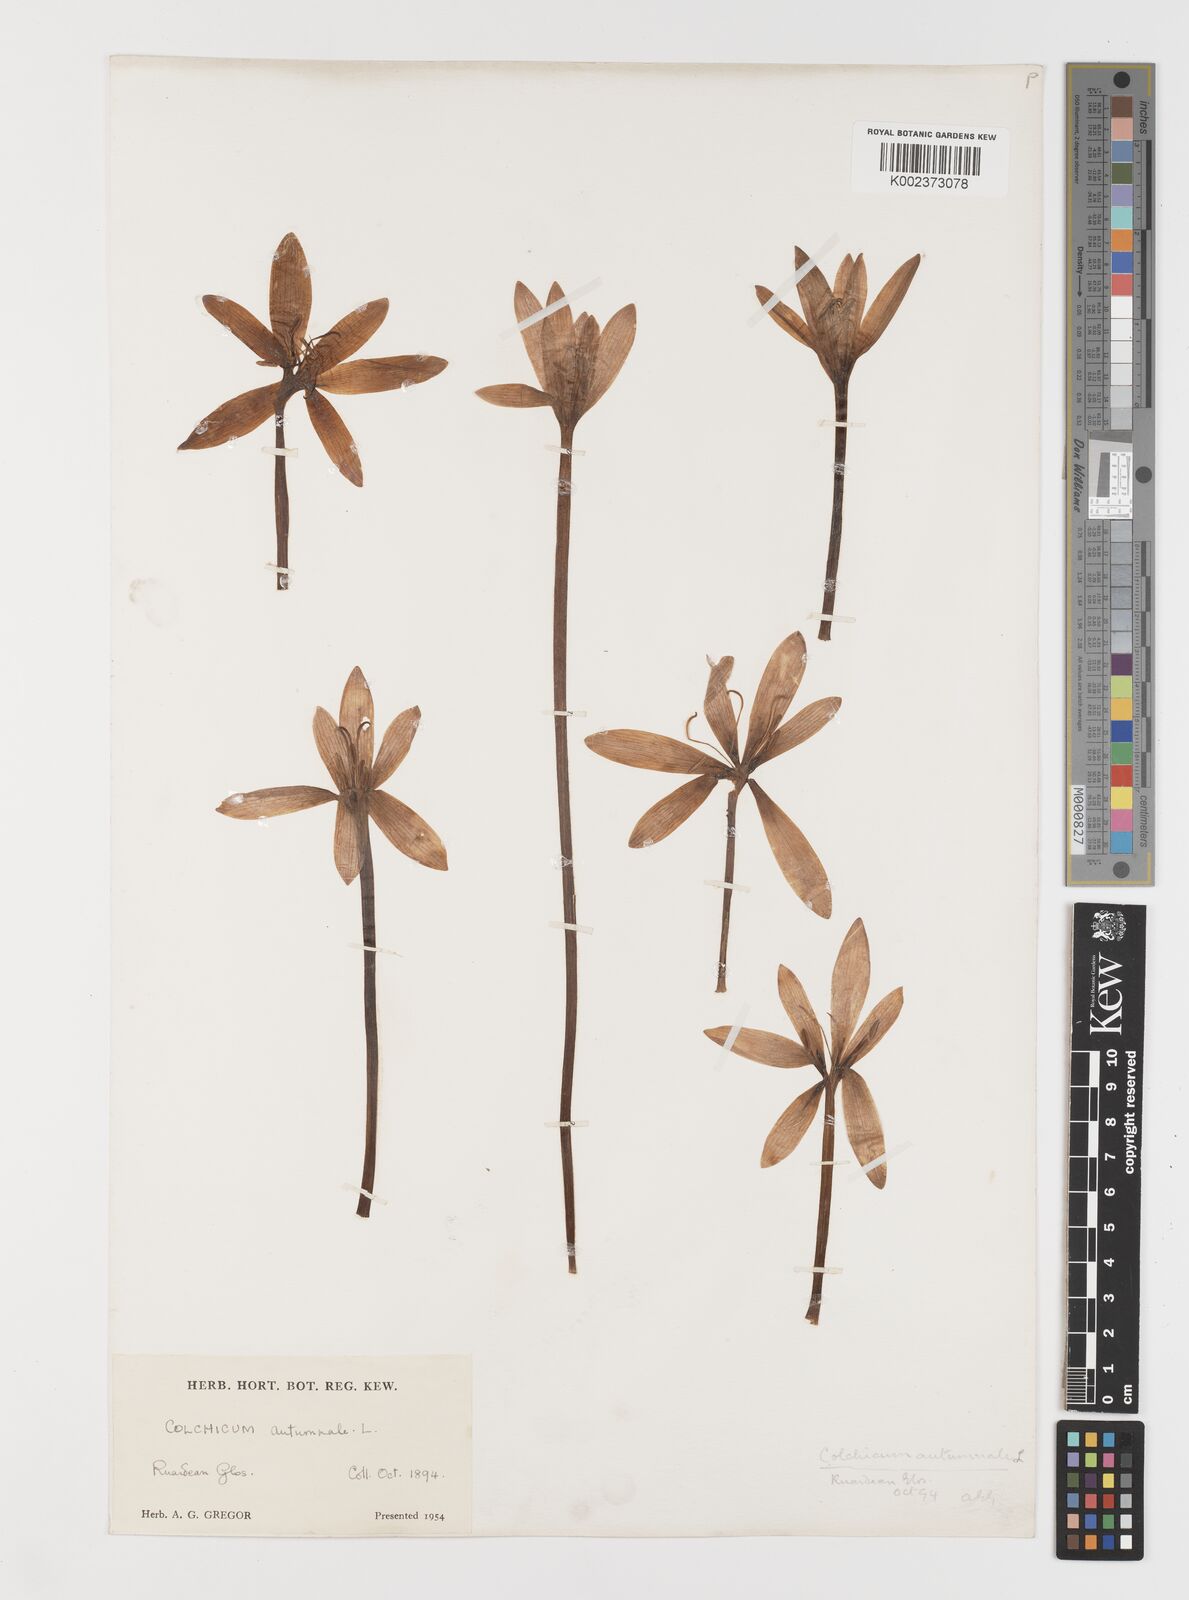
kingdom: Plantae
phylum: Tracheophyta
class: Liliopsida
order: Liliales
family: Colchicaceae
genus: Colchicum
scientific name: Colchicum autumnale
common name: Autumn crocus
